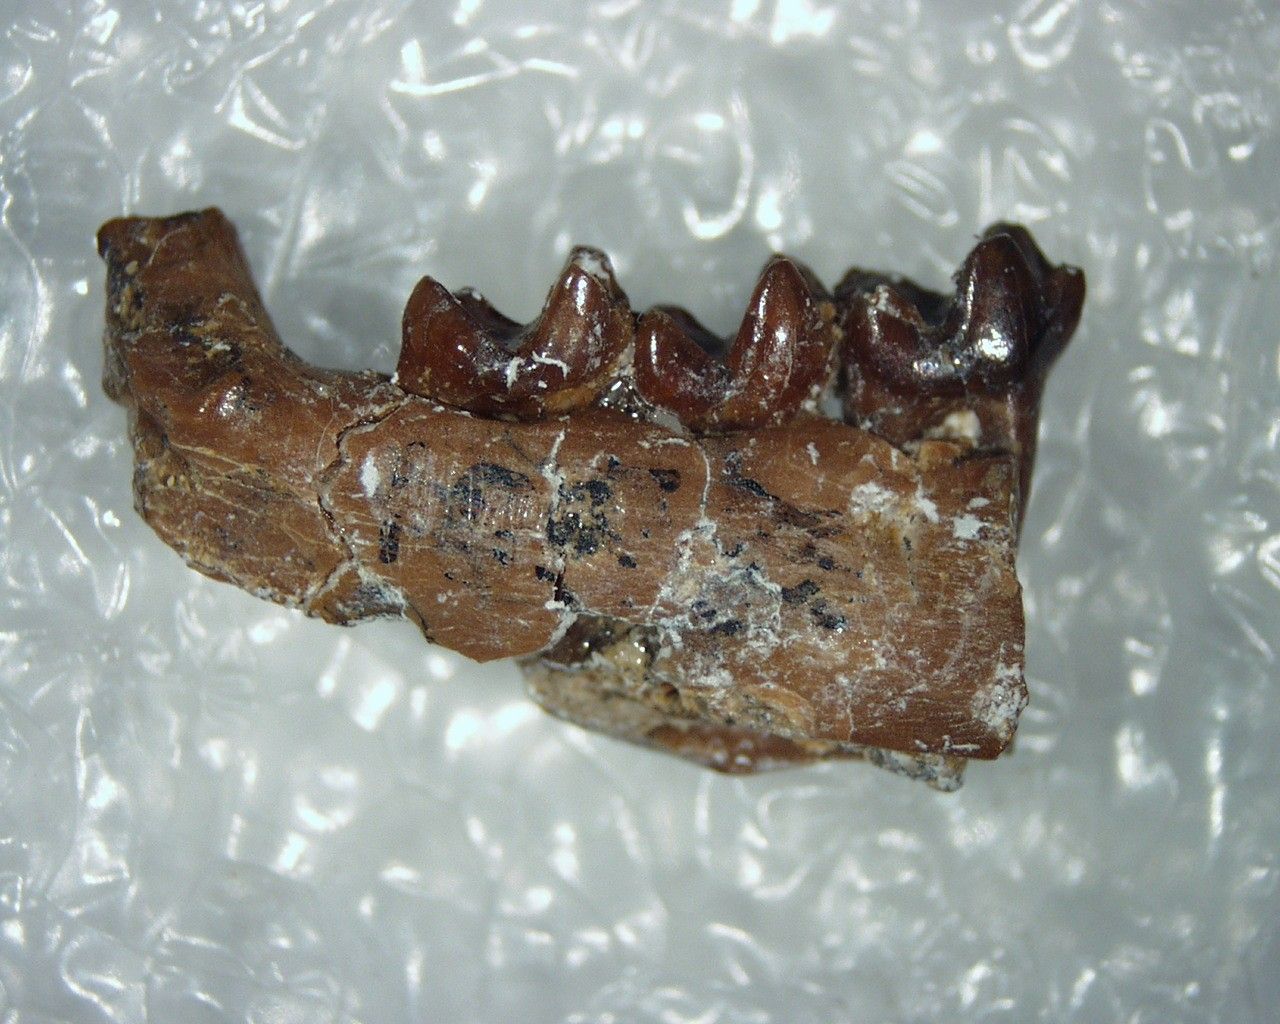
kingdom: Animalia
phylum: Chordata
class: Mammalia
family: Pantolestidae
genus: Aphronorus
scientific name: Aphronorus fraudator
